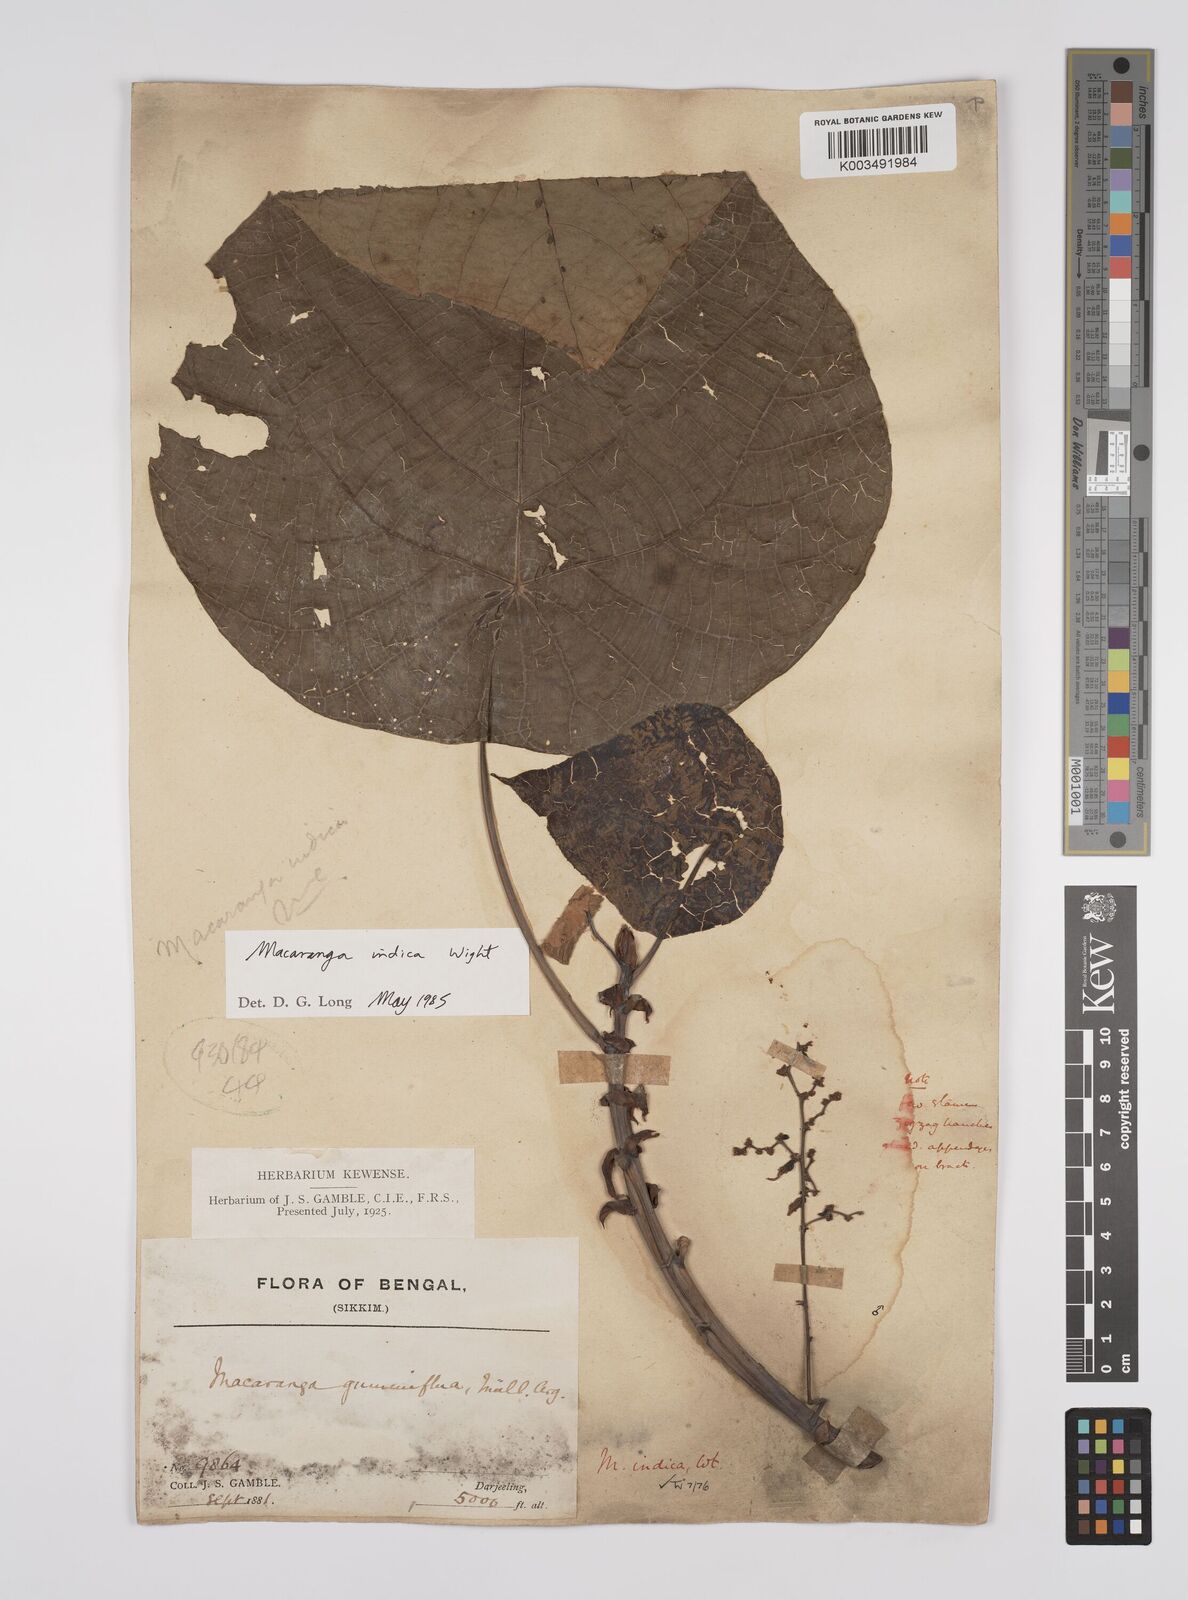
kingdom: Plantae
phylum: Tracheophyta
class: Magnoliopsida
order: Malpighiales
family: Euphorbiaceae
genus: Macaranga
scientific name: Macaranga indica
